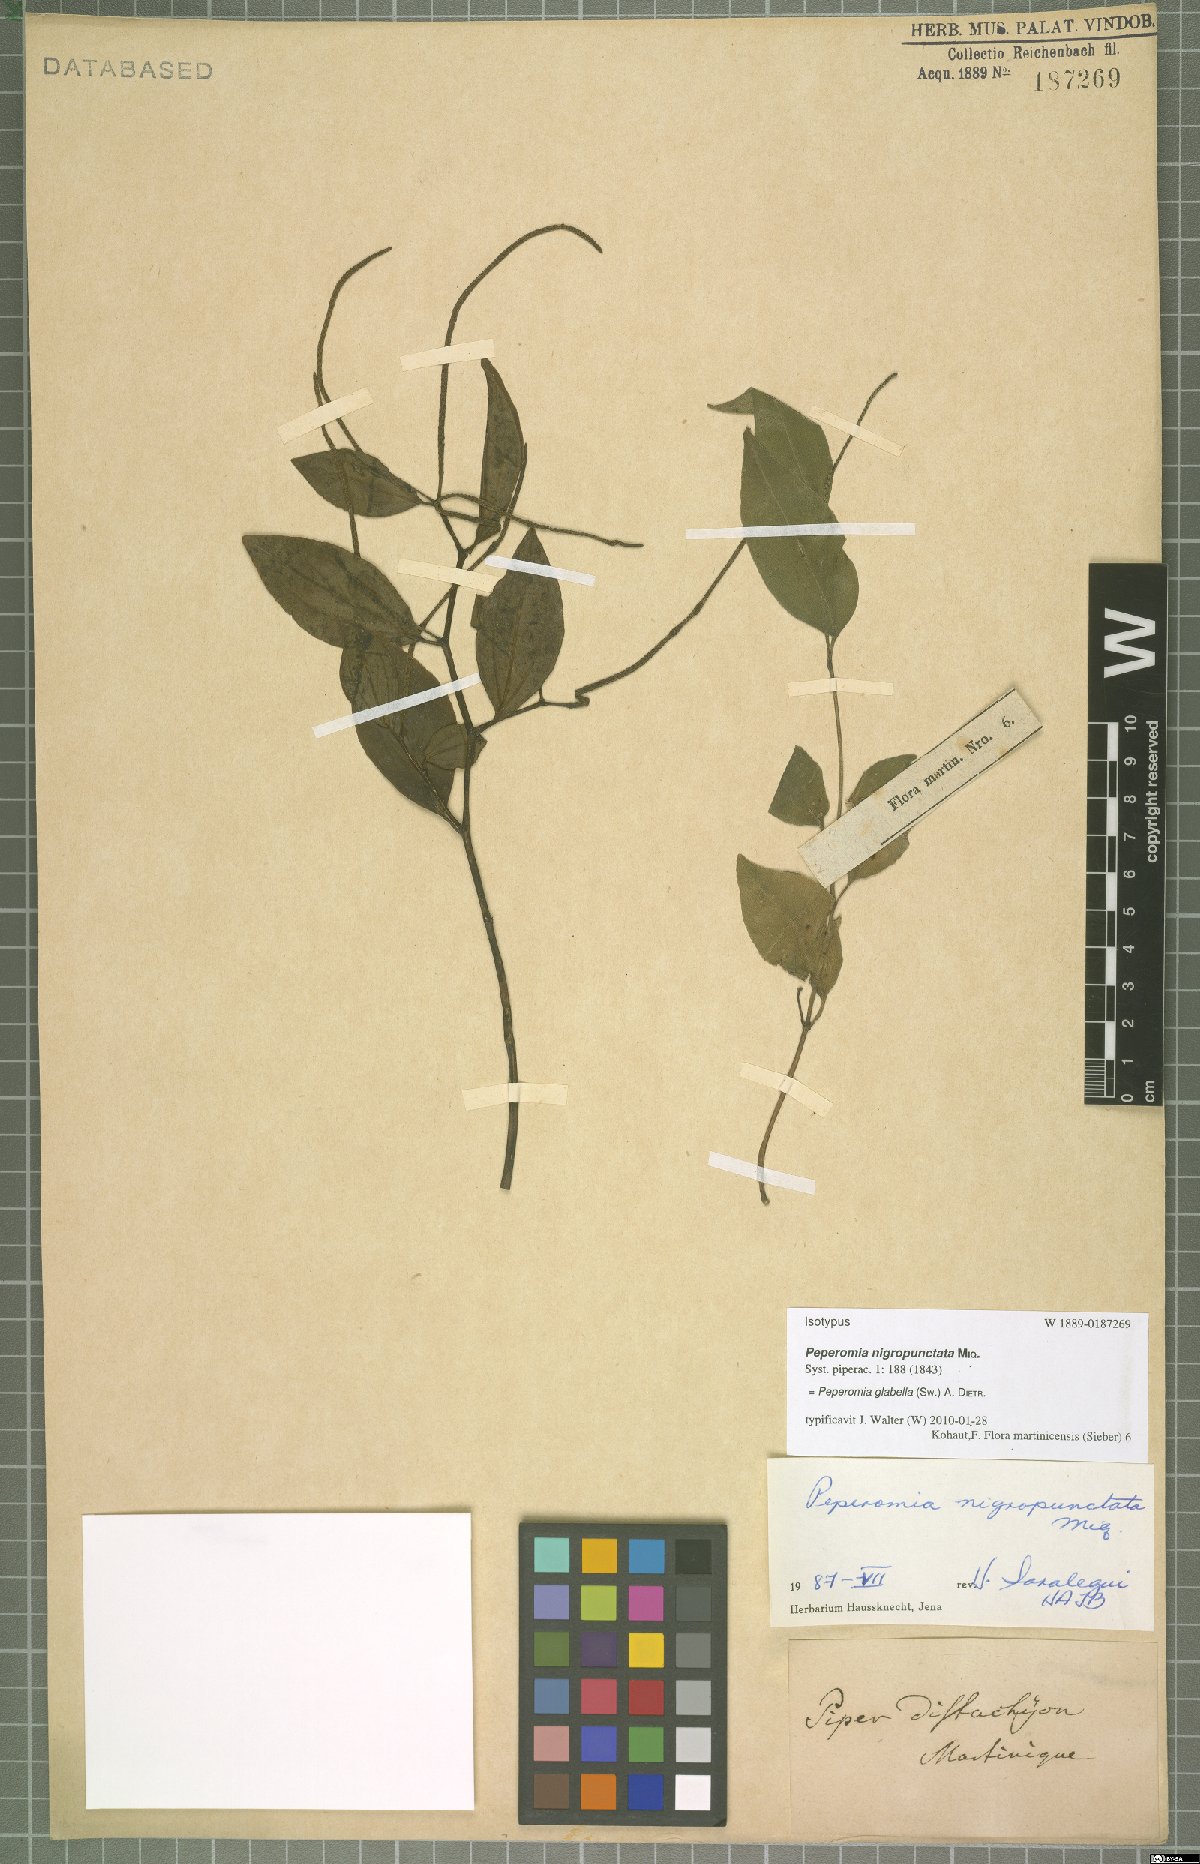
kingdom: Plantae
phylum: Tracheophyta
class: Magnoliopsida
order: Piperales
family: Piperaceae
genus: Peperomia
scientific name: Peperomia glabella
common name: Cypress peperomia
